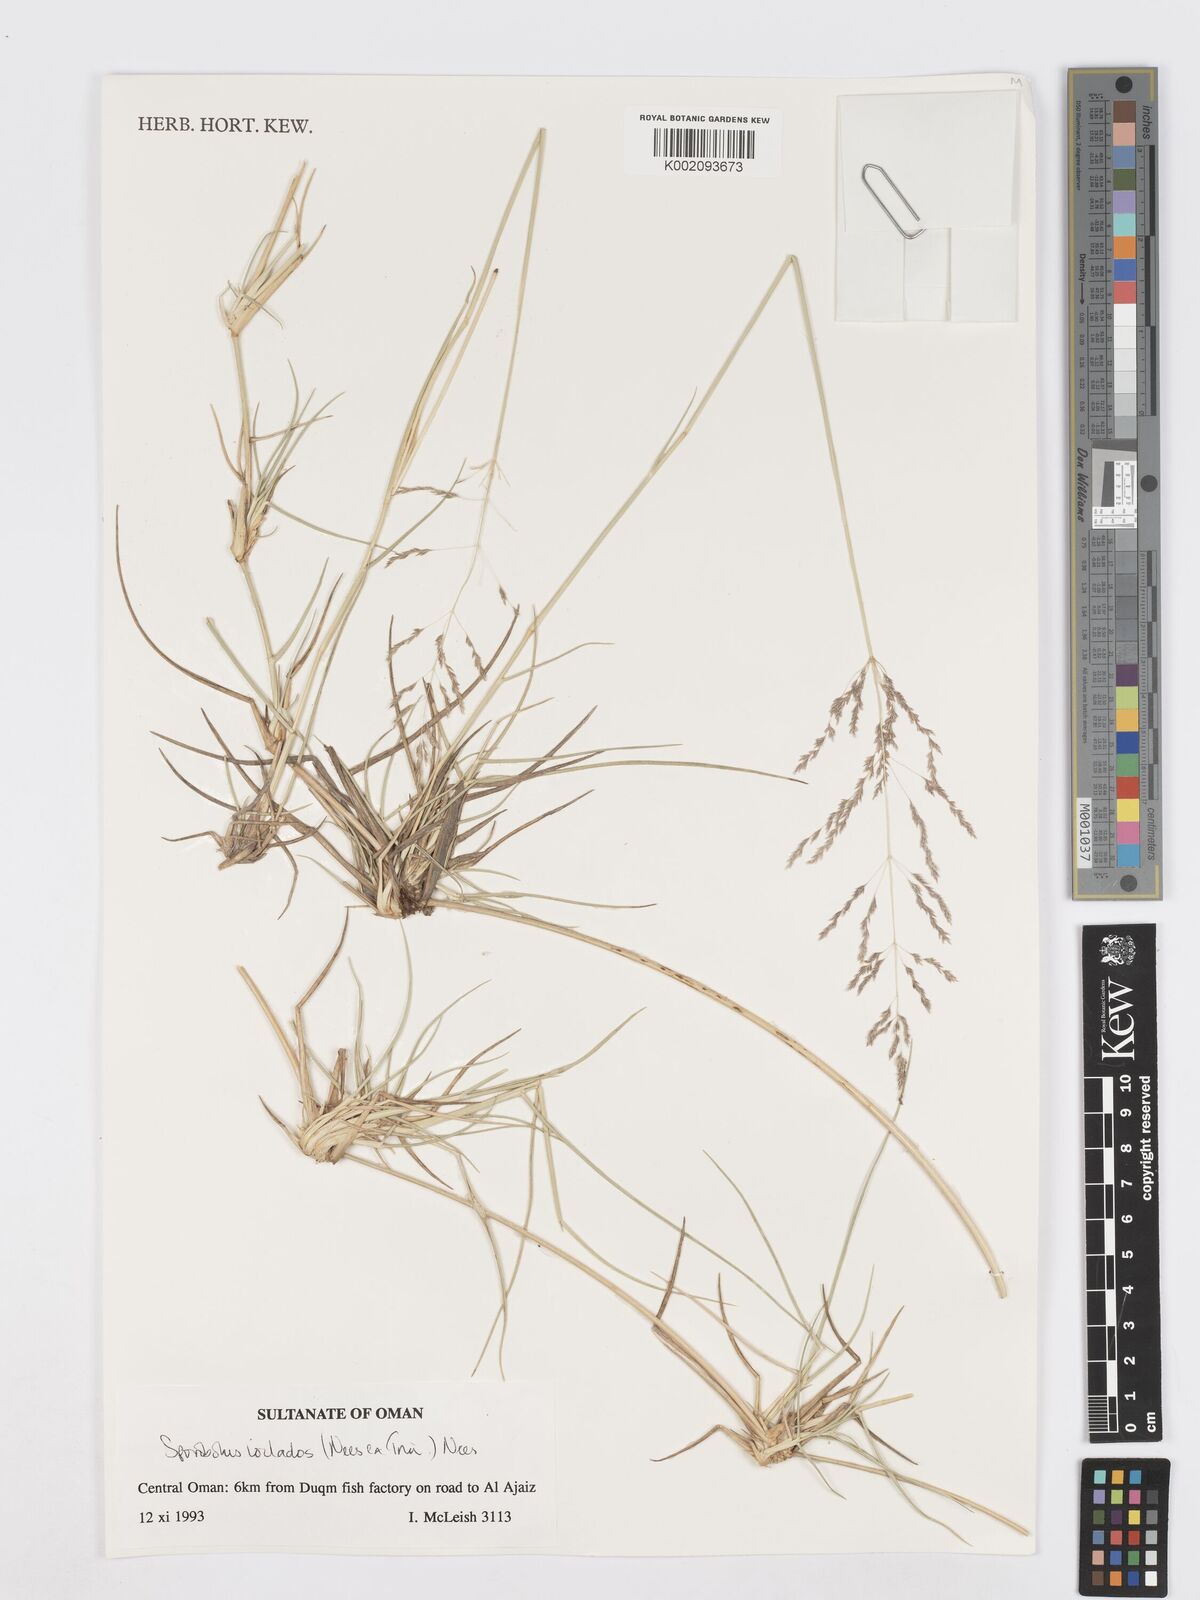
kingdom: Plantae
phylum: Tracheophyta
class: Liliopsida
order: Poales
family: Poaceae
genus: Sporobolus
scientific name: Sporobolus ioclados
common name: Pan dropseed
